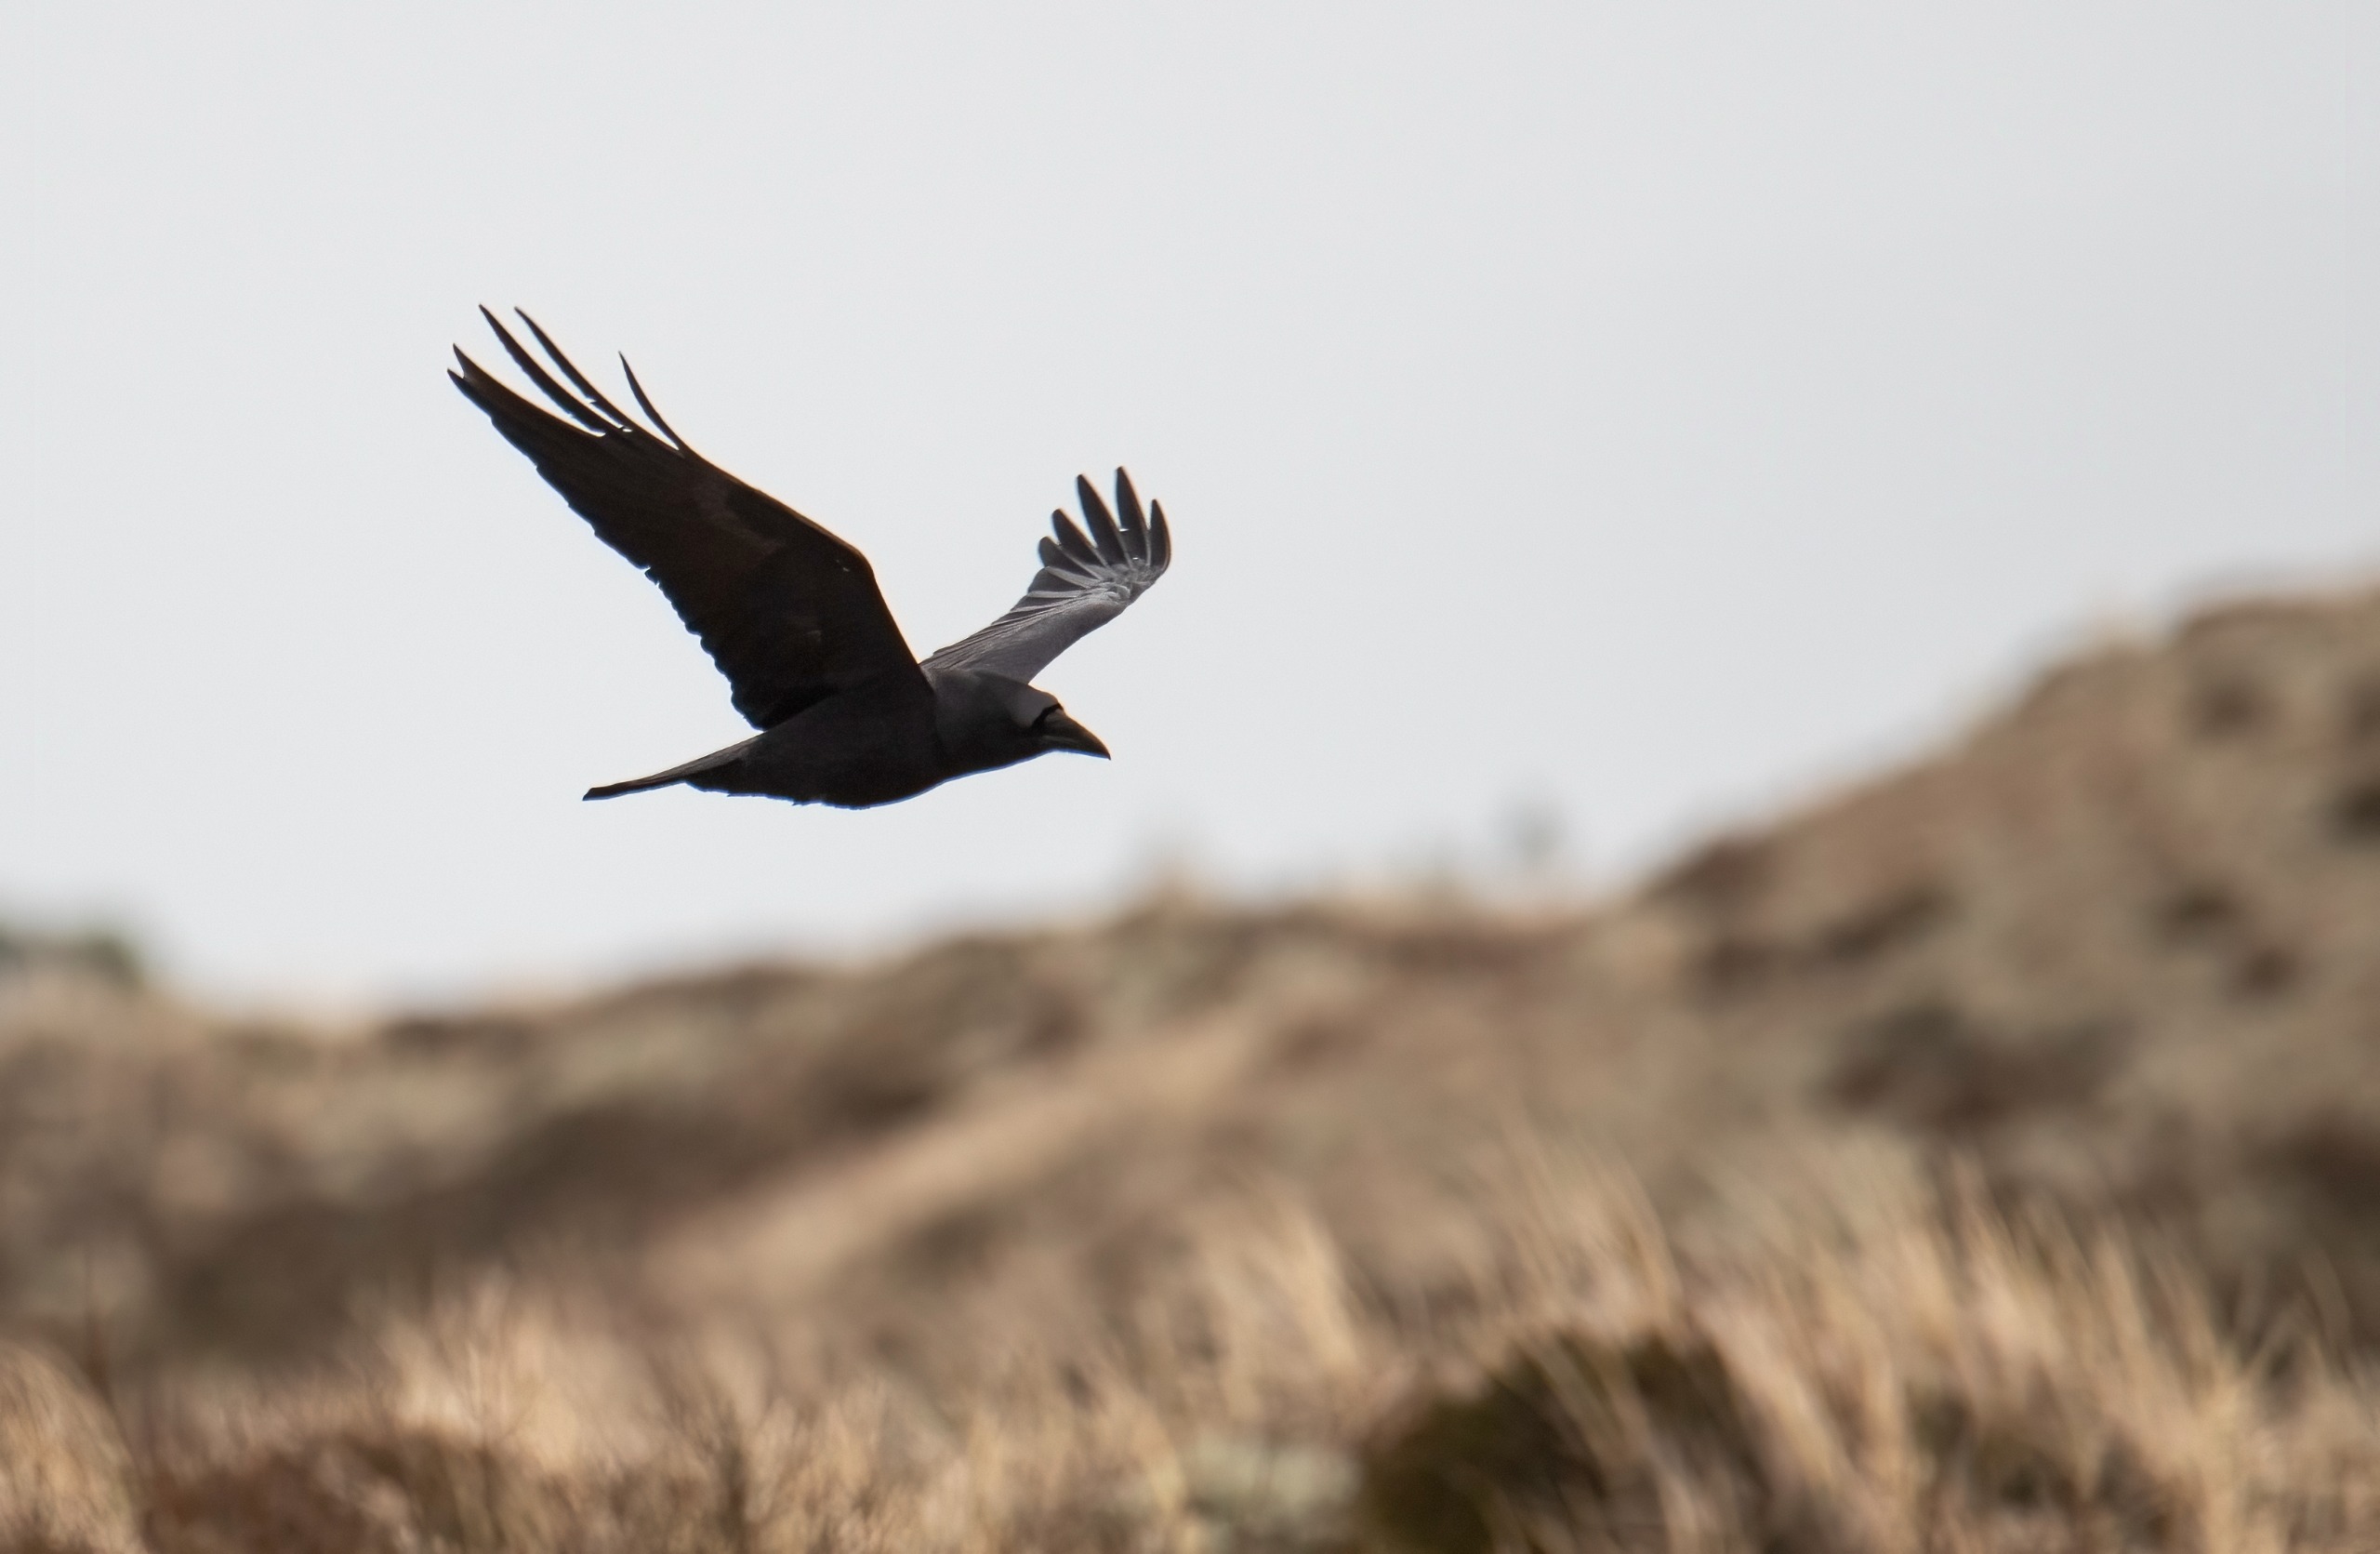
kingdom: Animalia
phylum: Chordata
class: Aves
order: Passeriformes
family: Corvidae
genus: Corvus
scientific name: Corvus corax
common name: Ravn
